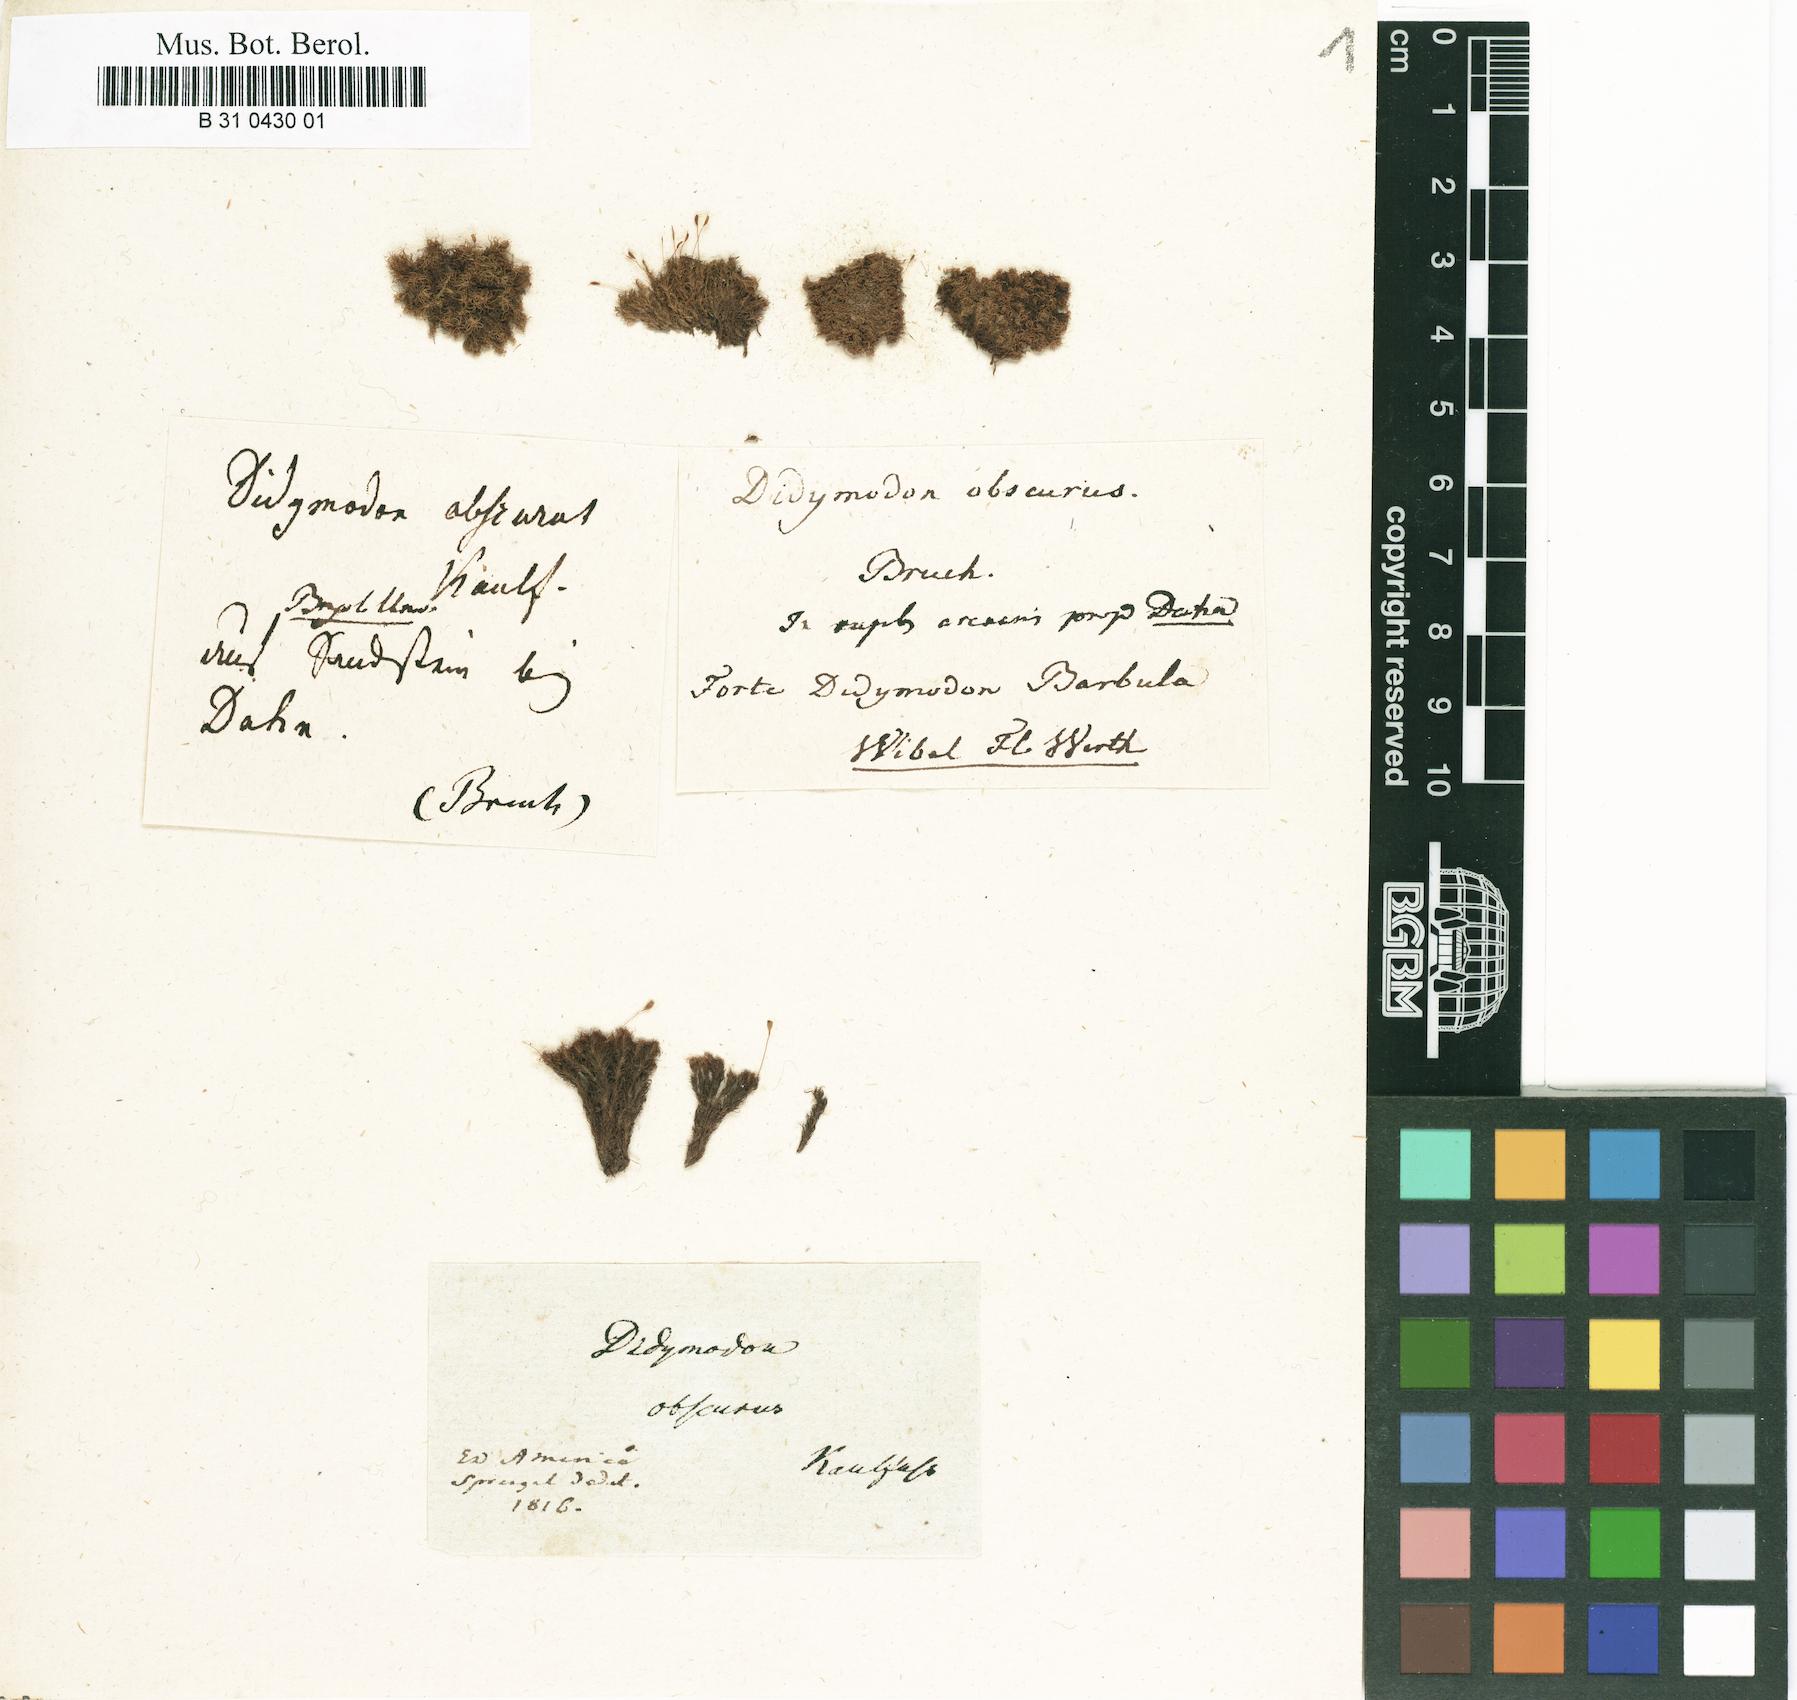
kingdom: Plantae
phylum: Bryophyta
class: Bryopsida
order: Dicranales
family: Rhabdoweisiaceae
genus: Cynodontium
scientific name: Cynodontium bruntonii
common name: Brunton's dog-tooth
